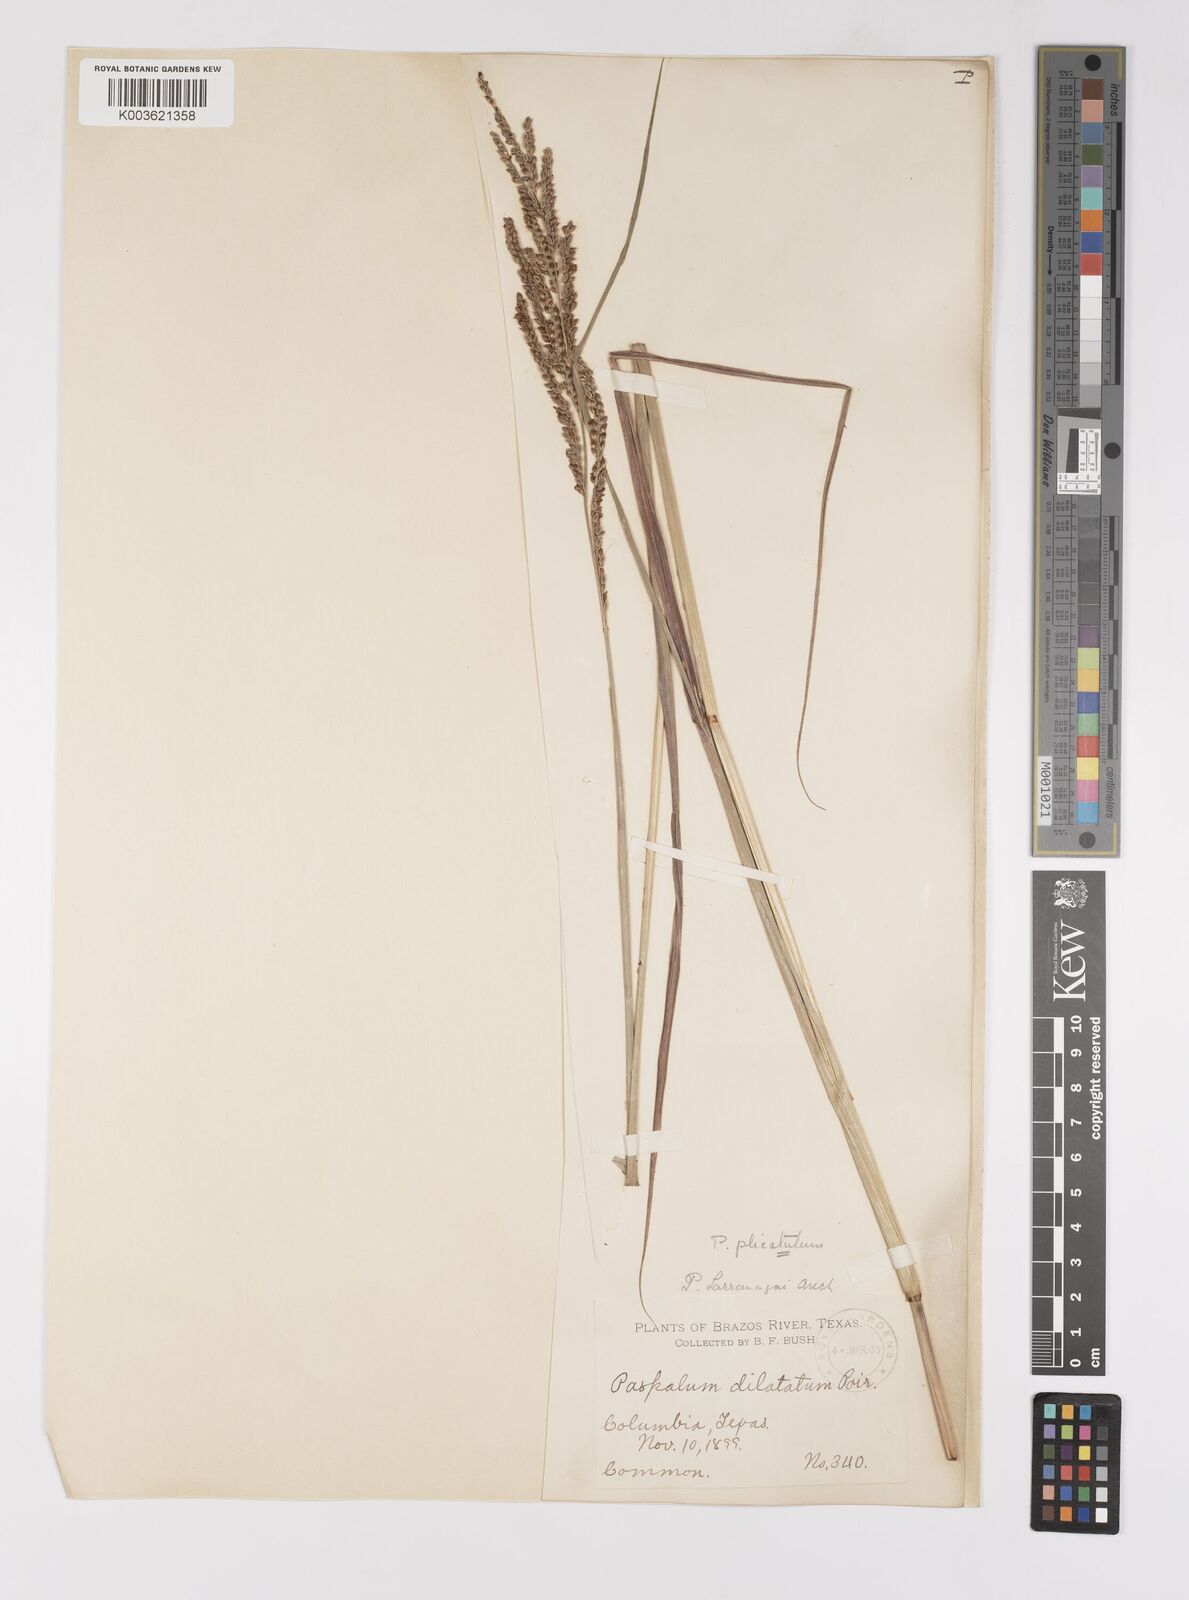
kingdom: Plantae
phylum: Tracheophyta
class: Liliopsida
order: Poales
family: Poaceae
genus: Paspalum
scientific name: Paspalum plicatulum
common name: Top paspalum
